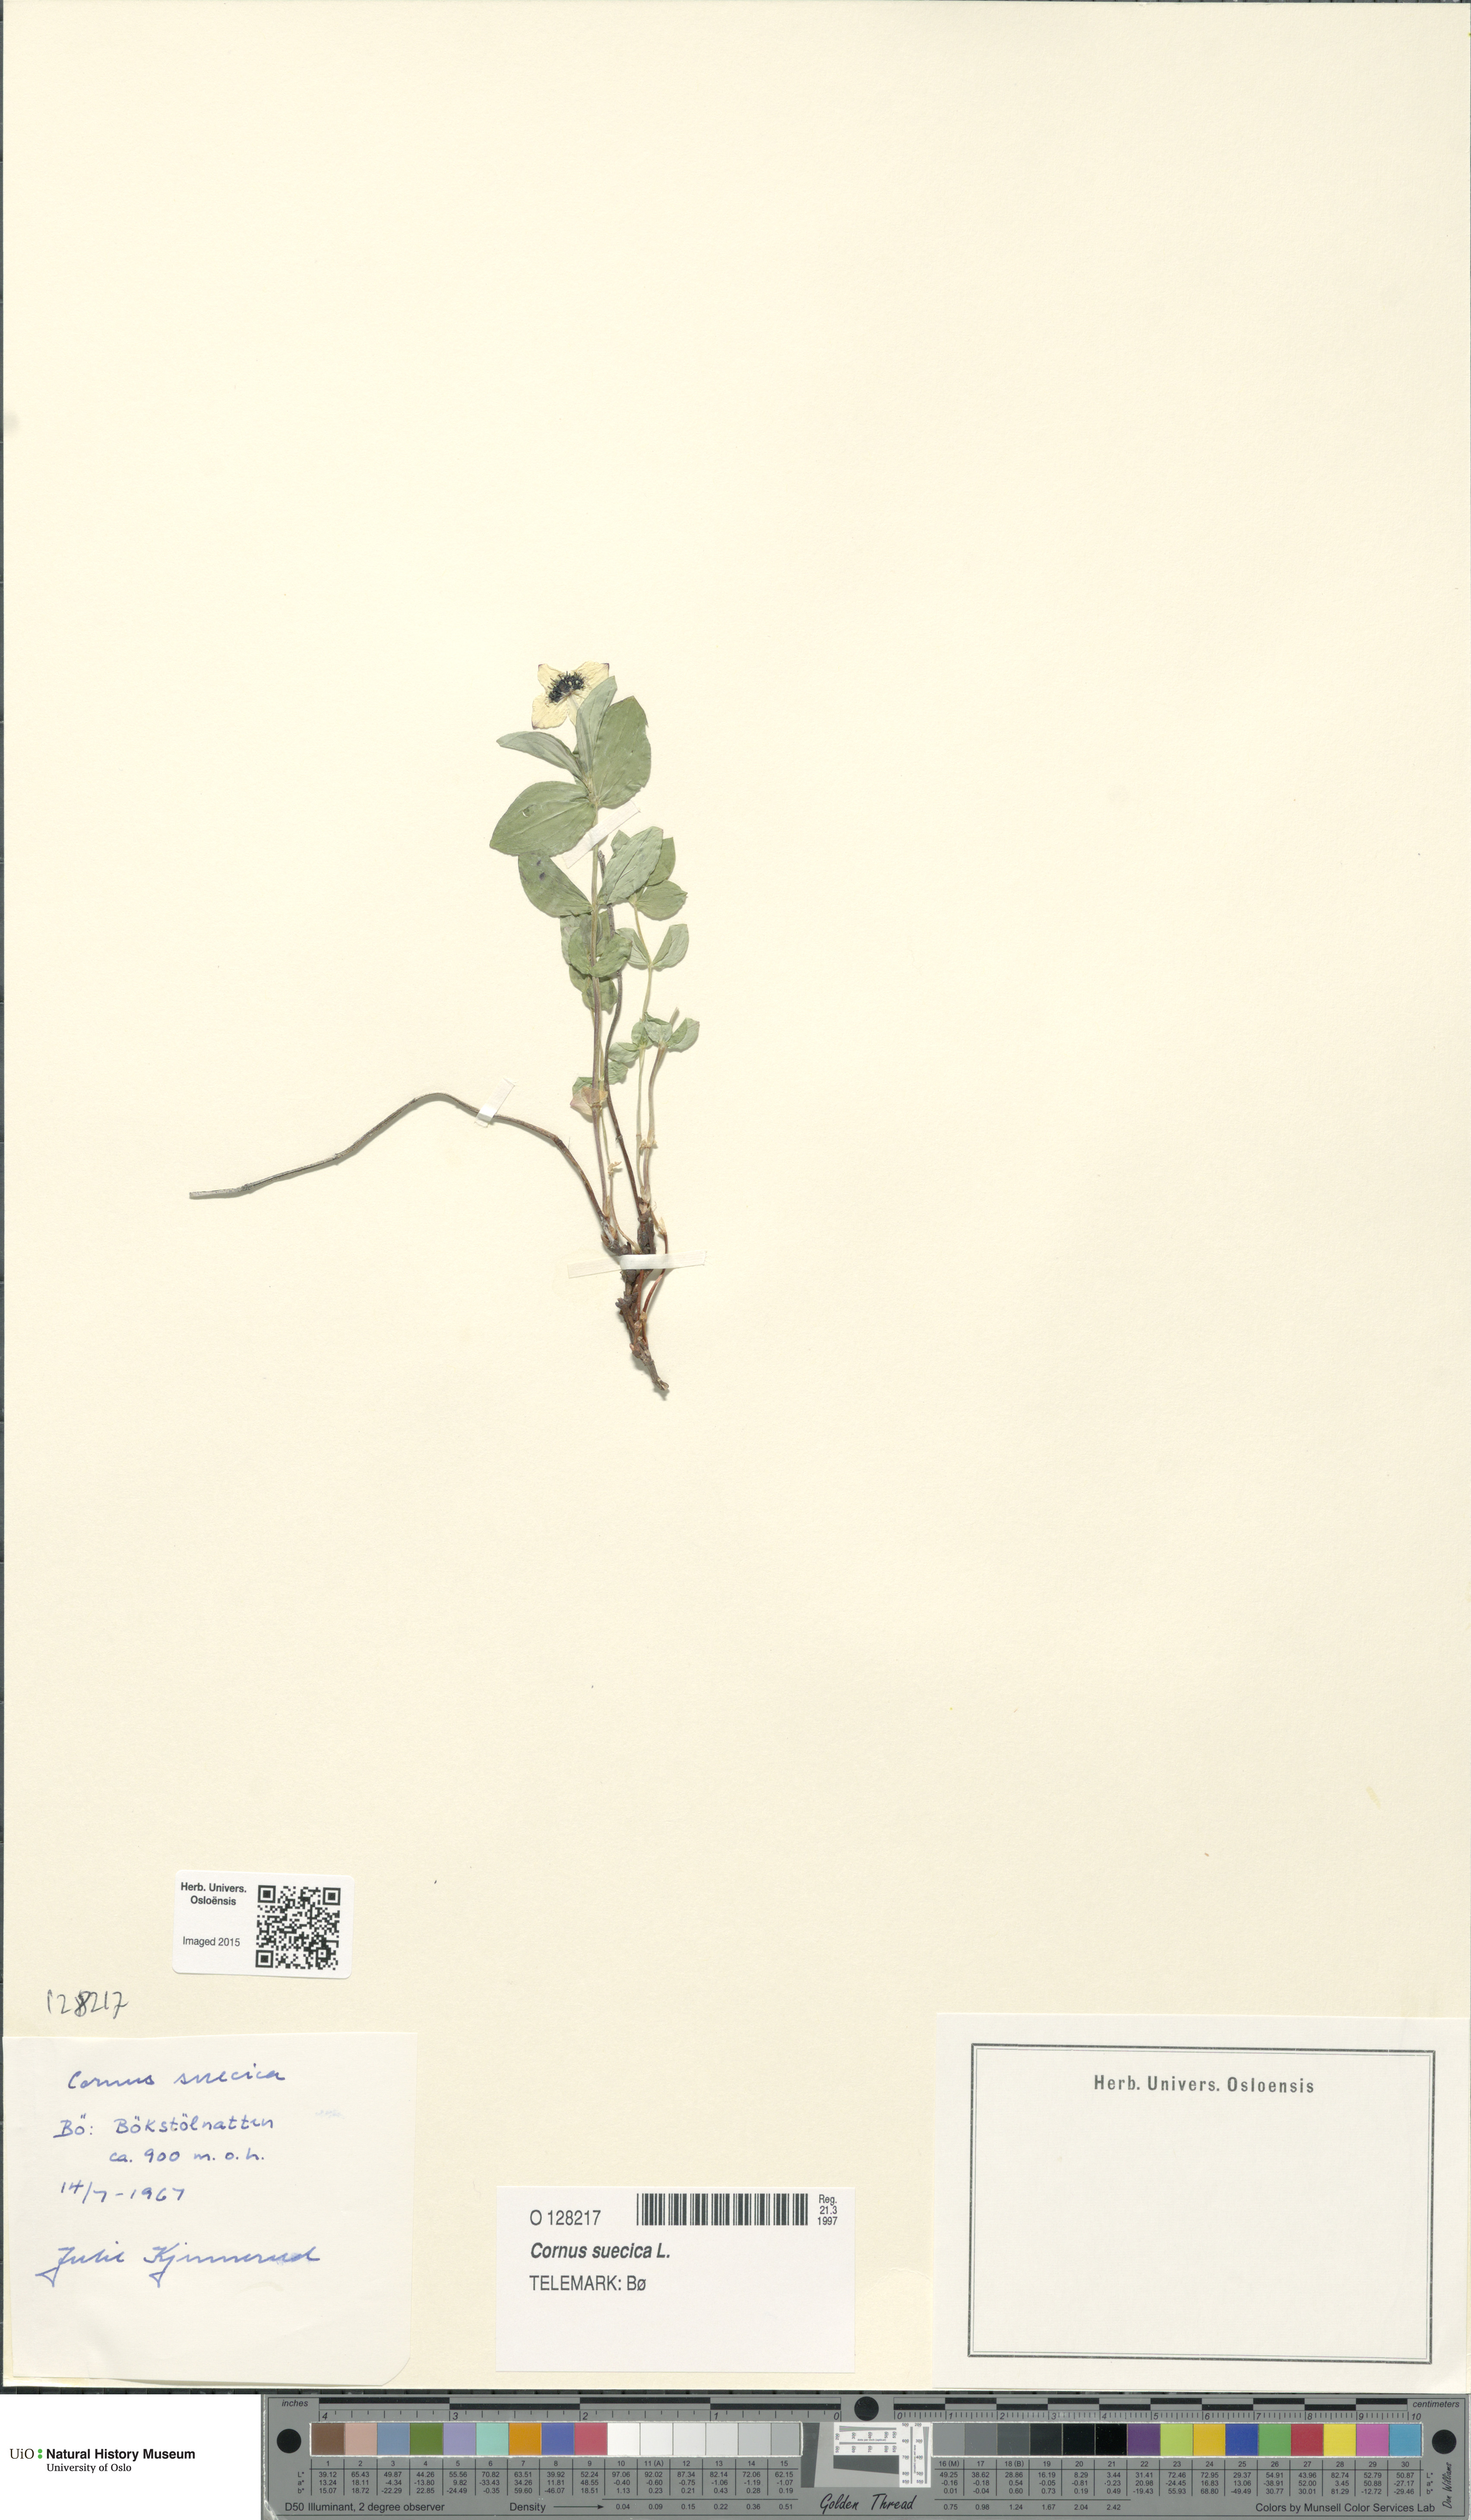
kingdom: Plantae
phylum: Tracheophyta
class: Magnoliopsida
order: Cornales
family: Cornaceae
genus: Cornus
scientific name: Cornus suecica
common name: Dwarf cornel
